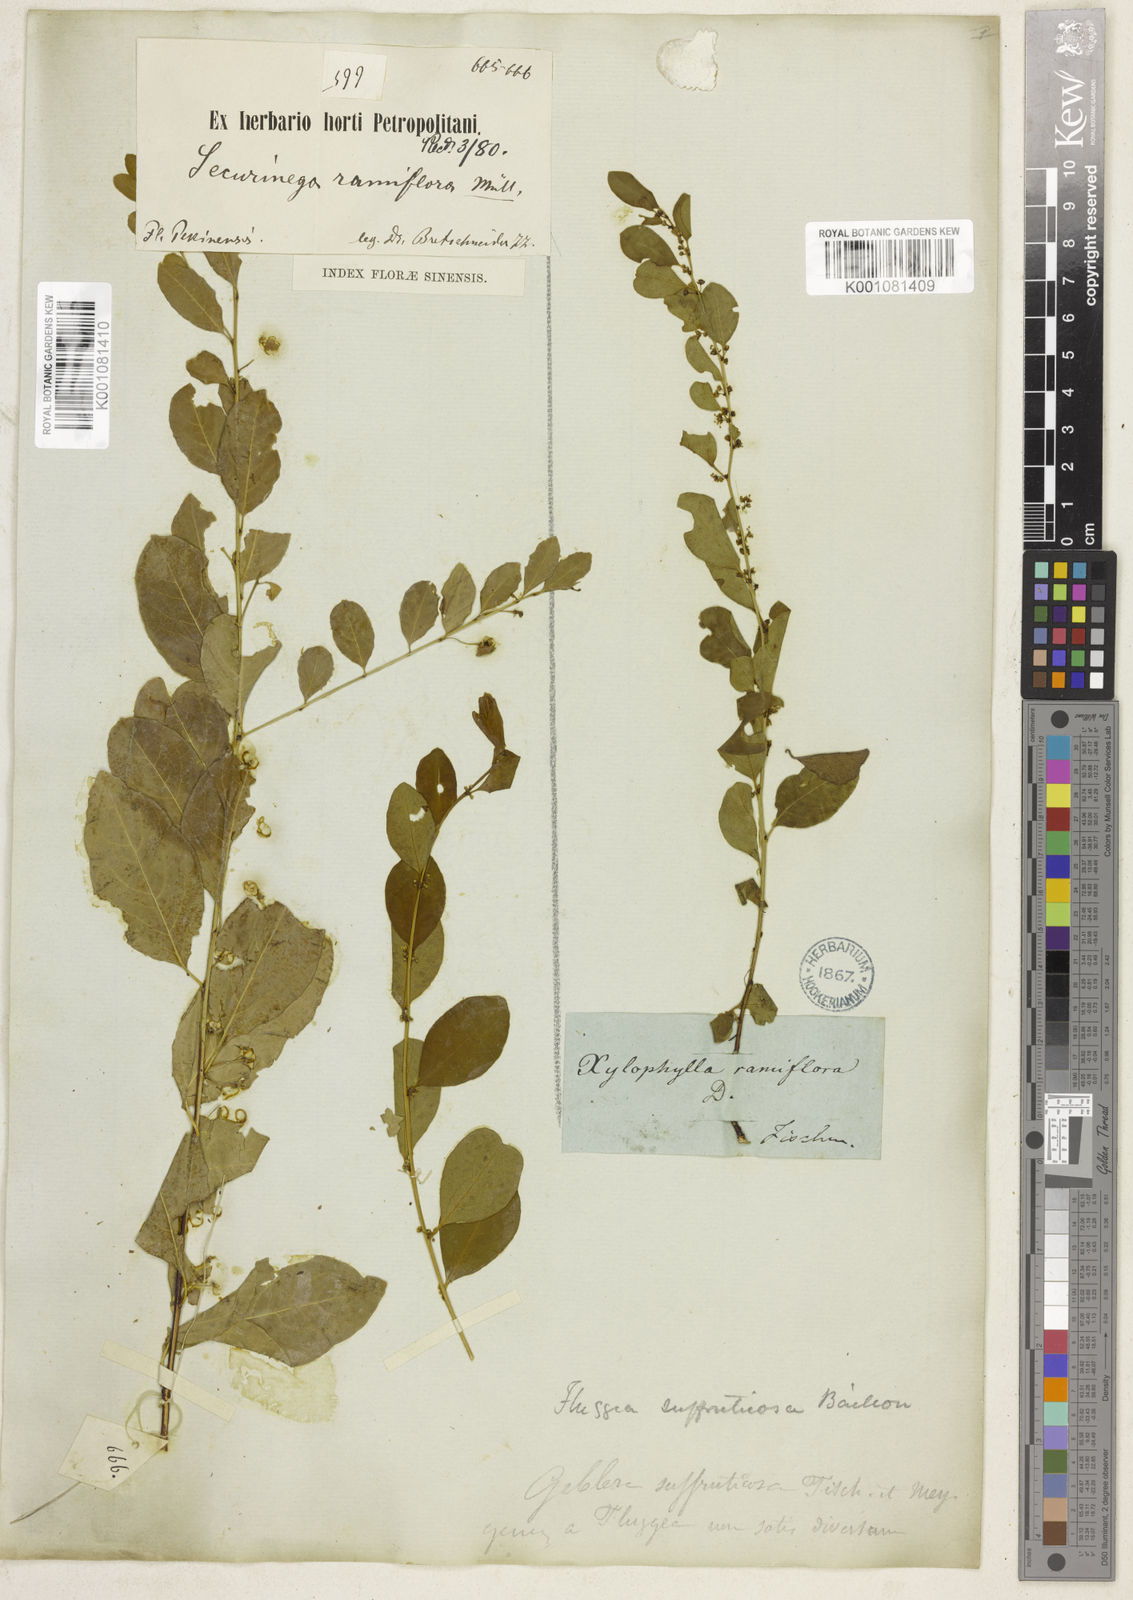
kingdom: Plantae
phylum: Tracheophyta
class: Magnoliopsida
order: Malpighiales
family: Phyllanthaceae
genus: Flueggea
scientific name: Flueggea suffruticosa
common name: Arching bushweed
